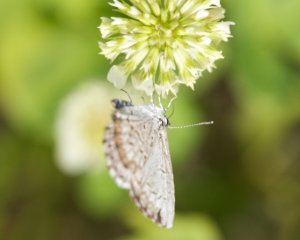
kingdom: Animalia
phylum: Arthropoda
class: Insecta
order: Lepidoptera
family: Lycaenidae
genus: Celastrina
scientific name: Celastrina
